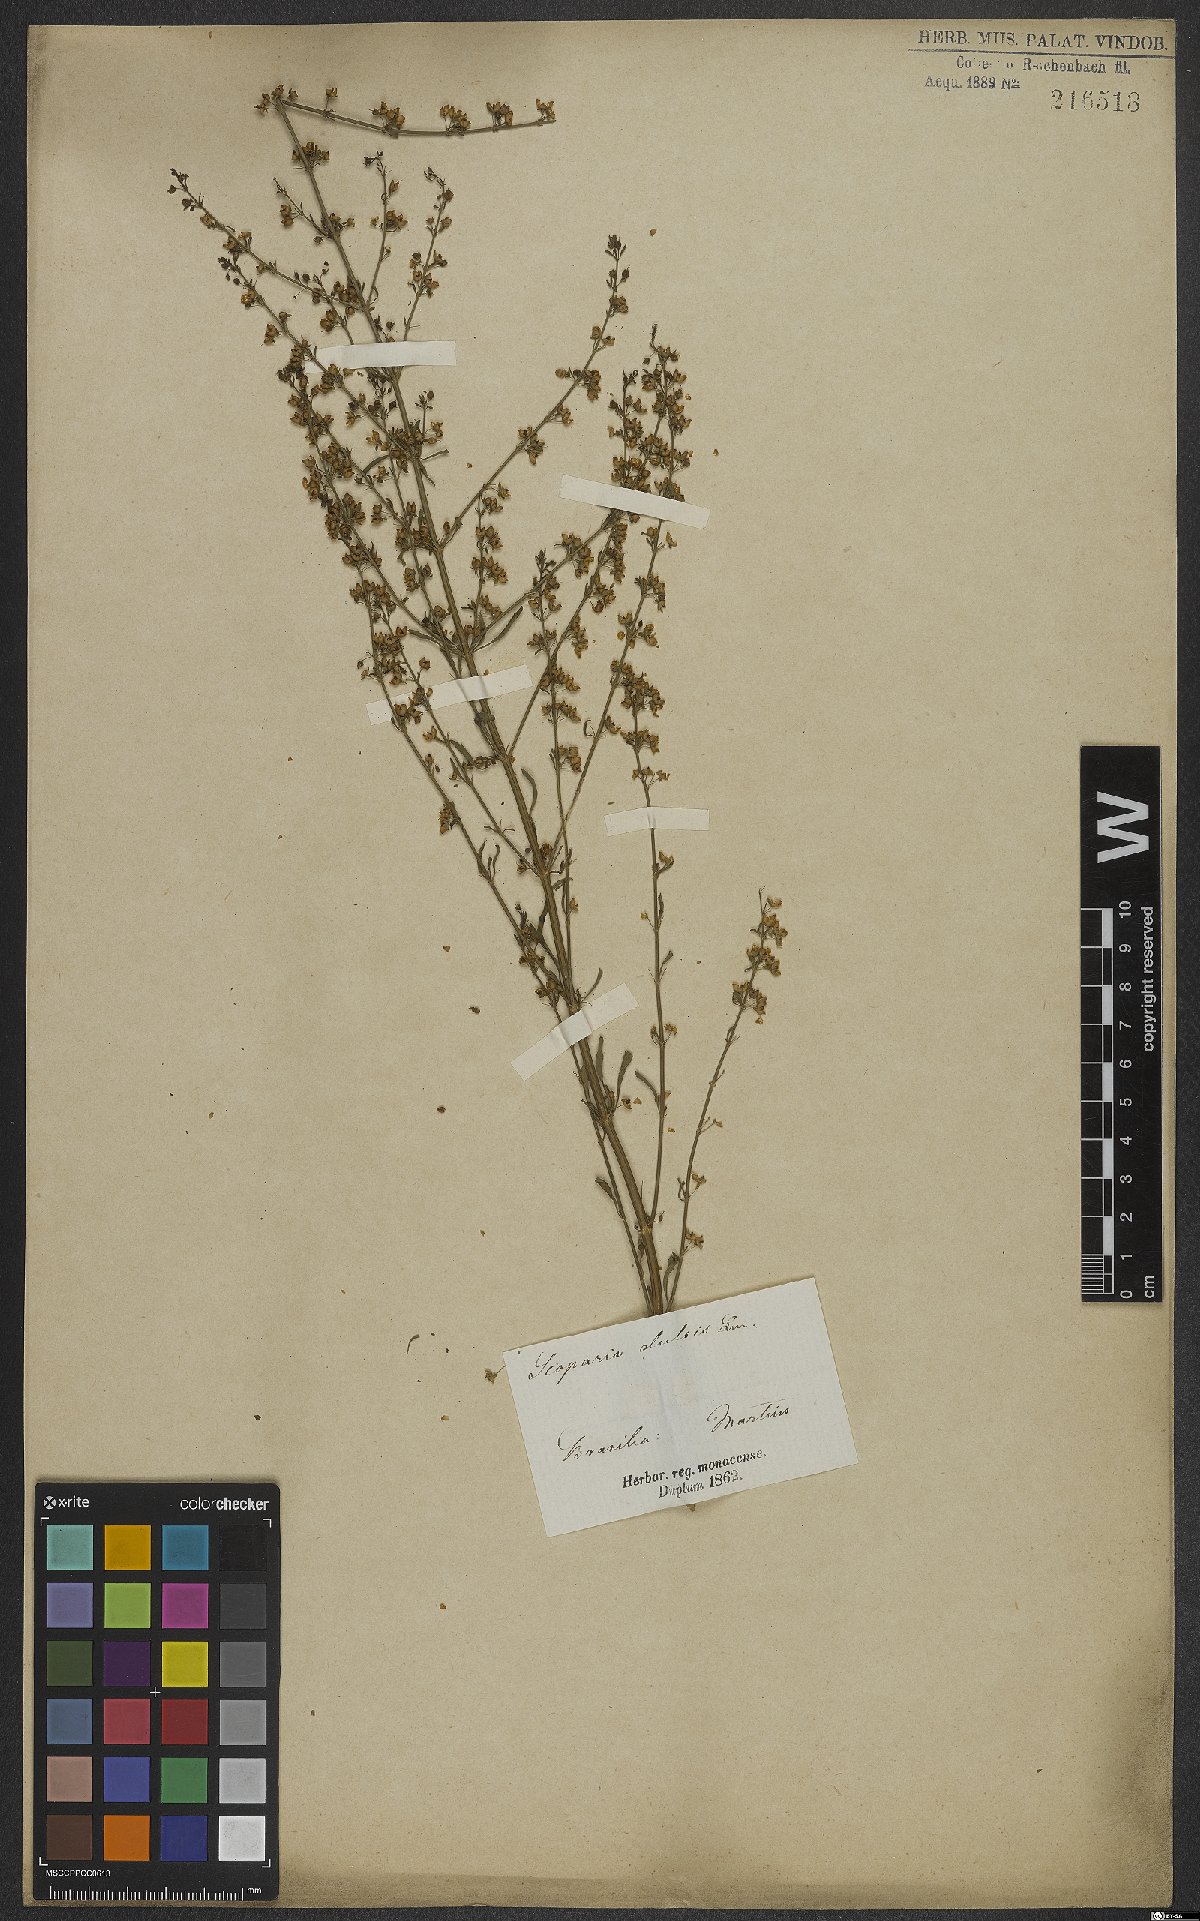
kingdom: Plantae
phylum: Tracheophyta
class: Magnoliopsida
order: Lamiales
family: Plantaginaceae
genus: Scoparia
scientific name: Scoparia dulcis
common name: Scoparia-weed
